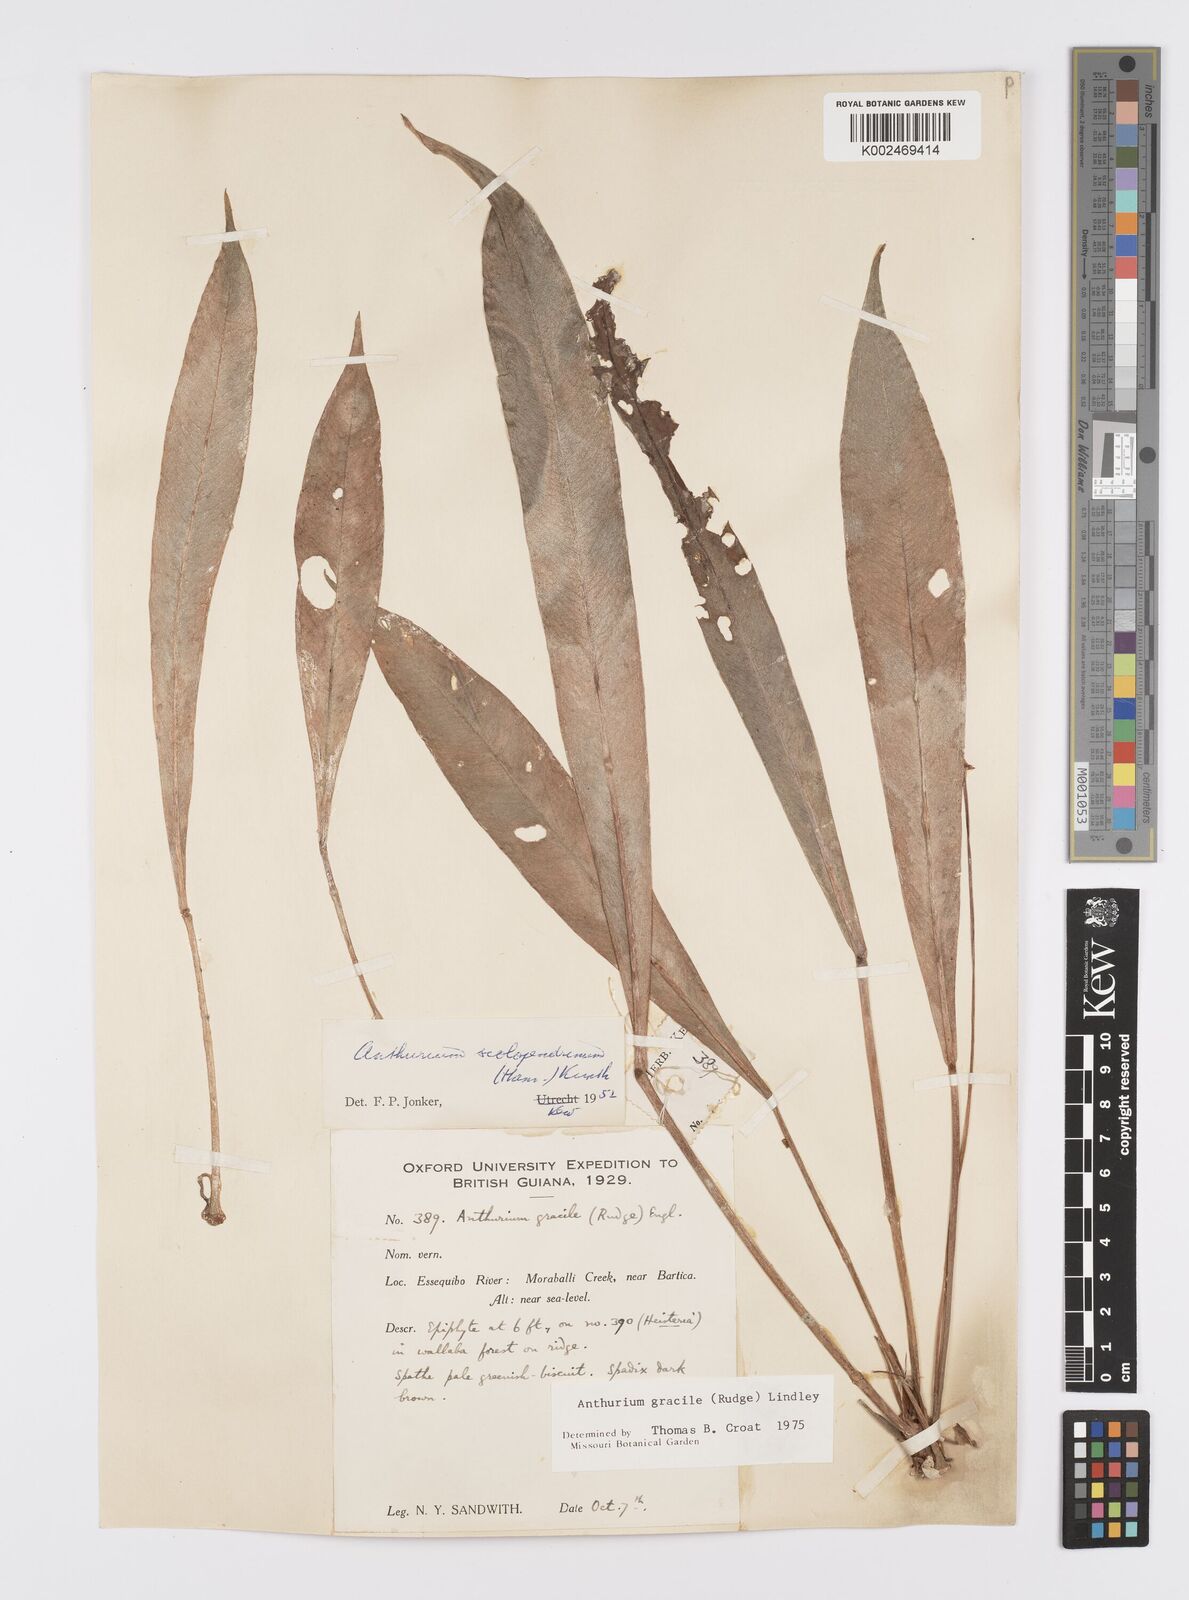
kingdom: Plantae
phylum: Tracheophyta
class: Liliopsida
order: Alismatales
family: Araceae
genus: Anthurium
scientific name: Anthurium gracile
